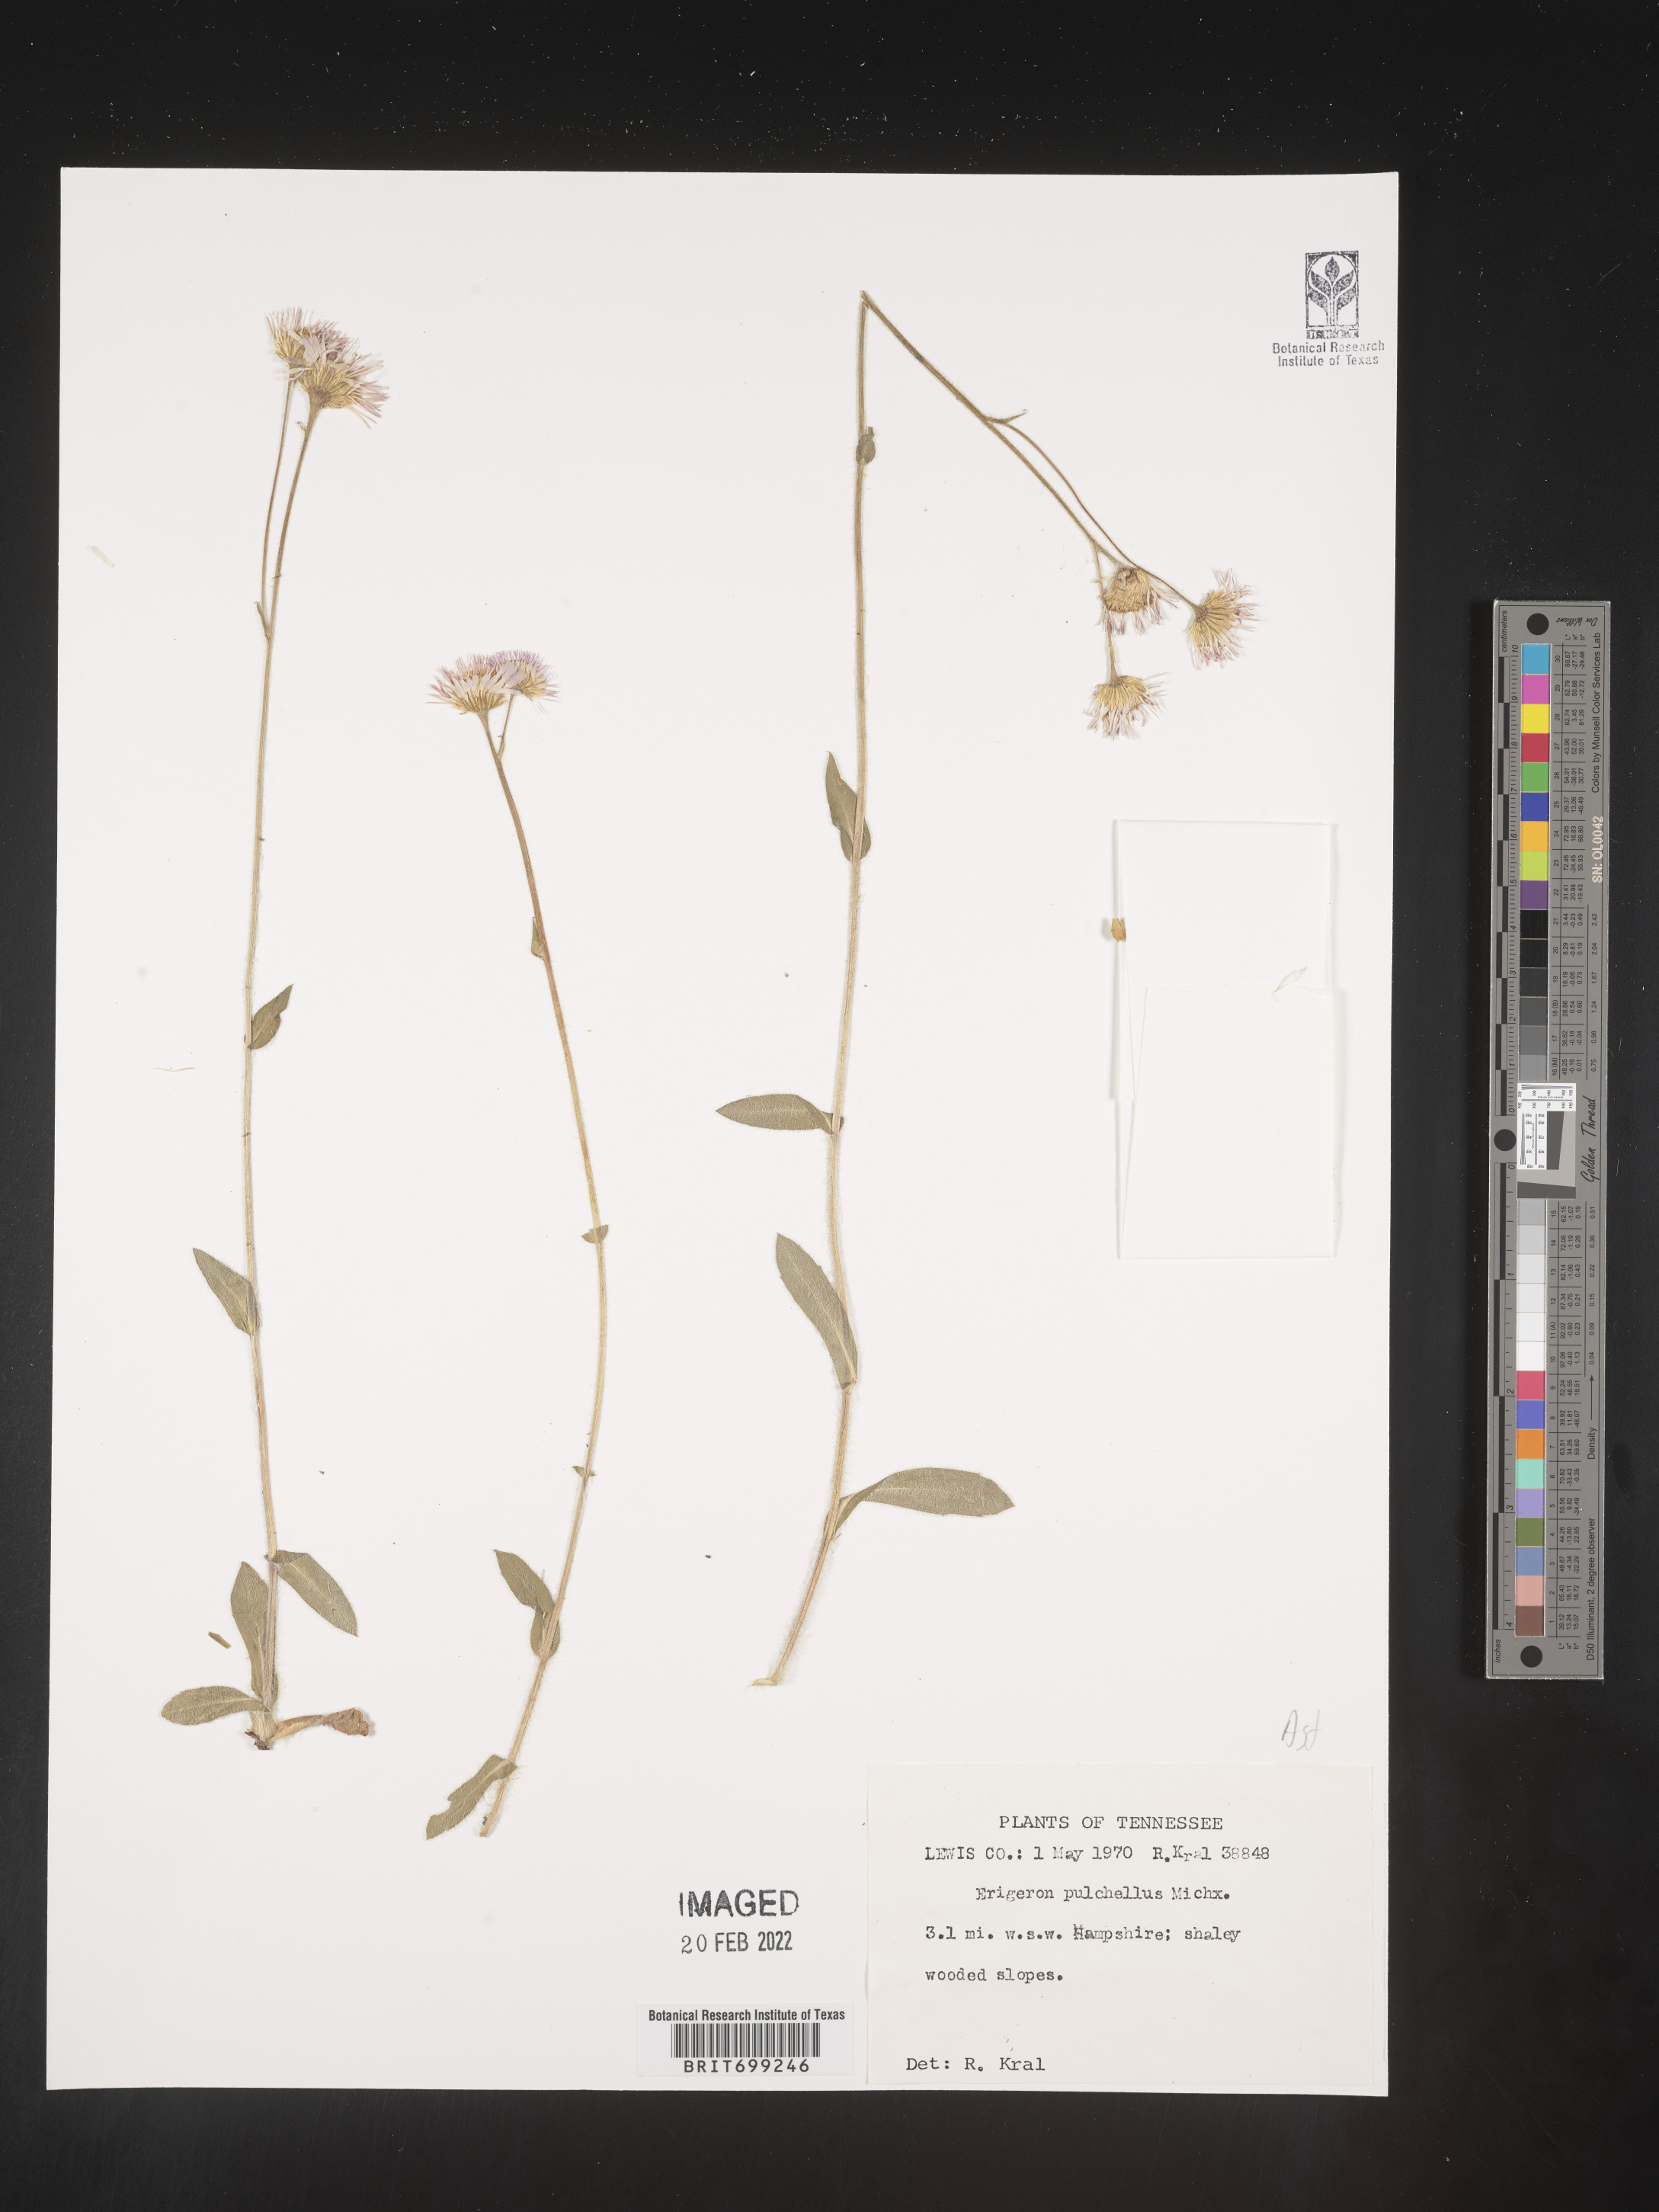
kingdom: Plantae
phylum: Tracheophyta
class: Magnoliopsida
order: Asterales
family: Asteraceae
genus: Erigeron
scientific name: Erigeron pulchellus
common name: Hairy fleabane
